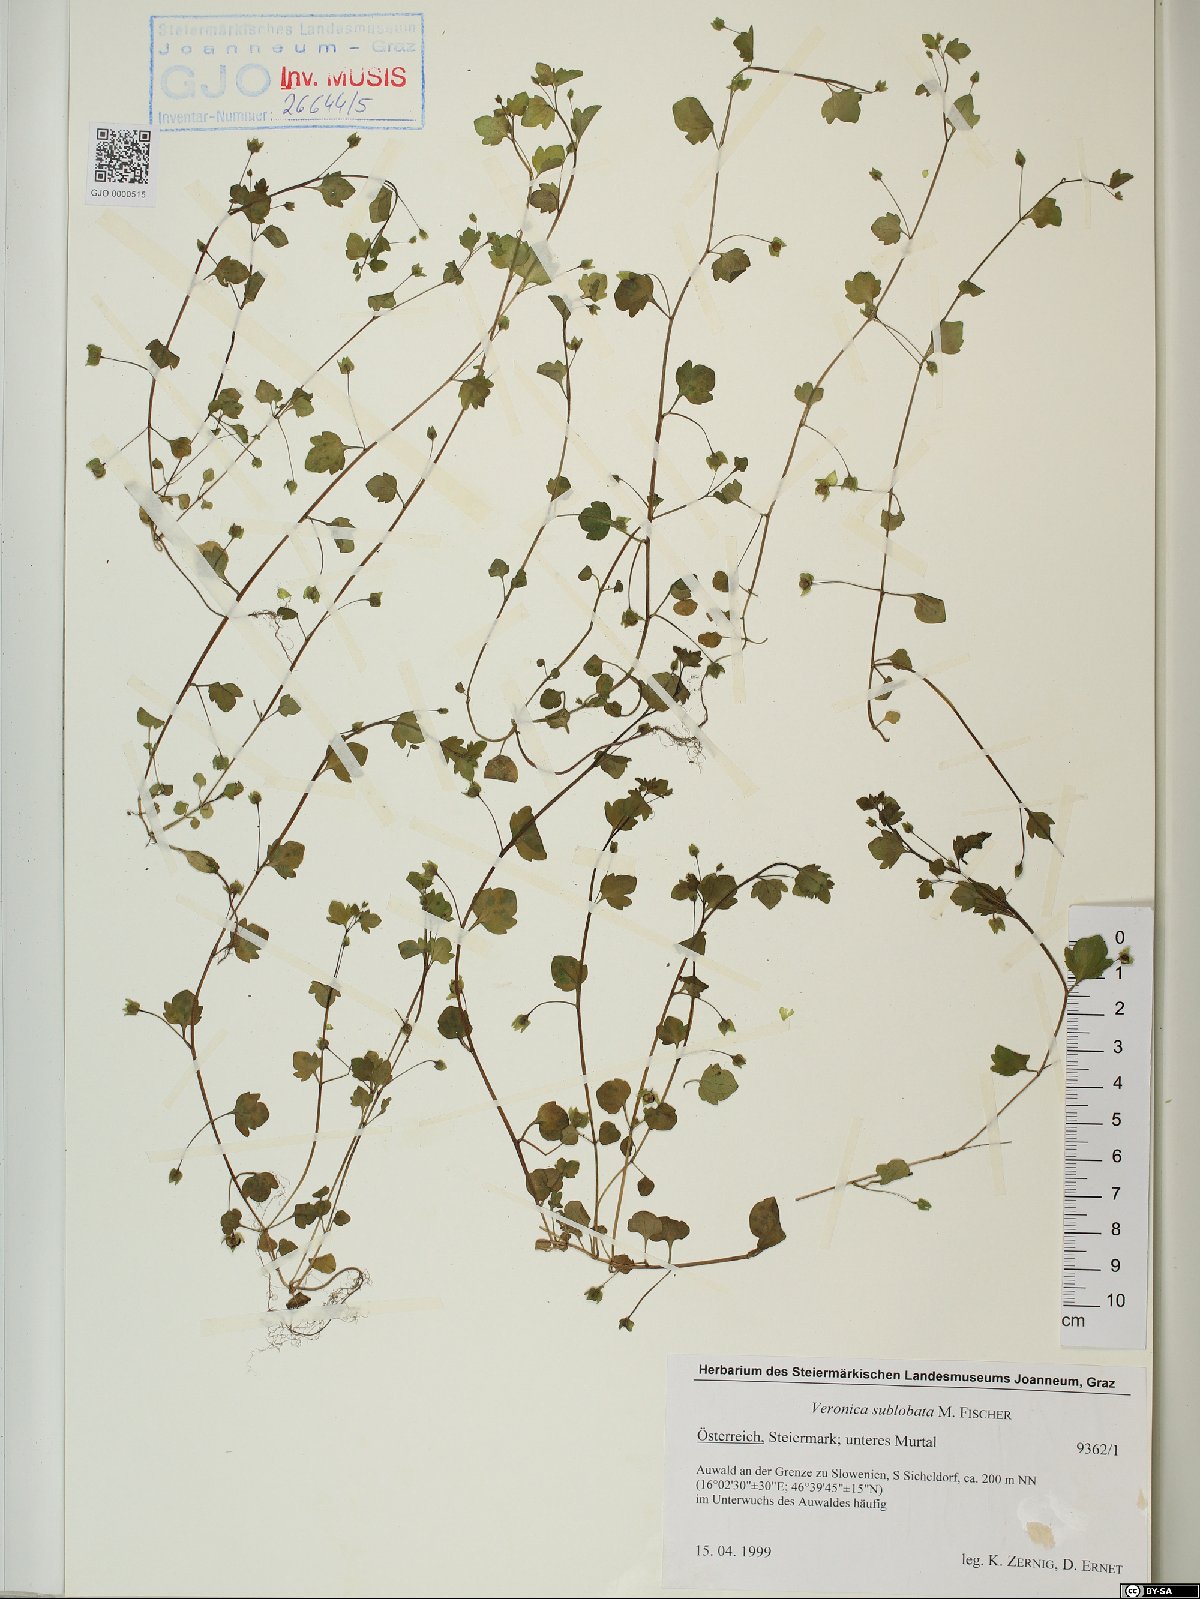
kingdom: Plantae
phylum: Tracheophyta
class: Magnoliopsida
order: Lamiales
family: Plantaginaceae
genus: Veronica
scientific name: Veronica sublobata
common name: False ivy-leaved speedwell
